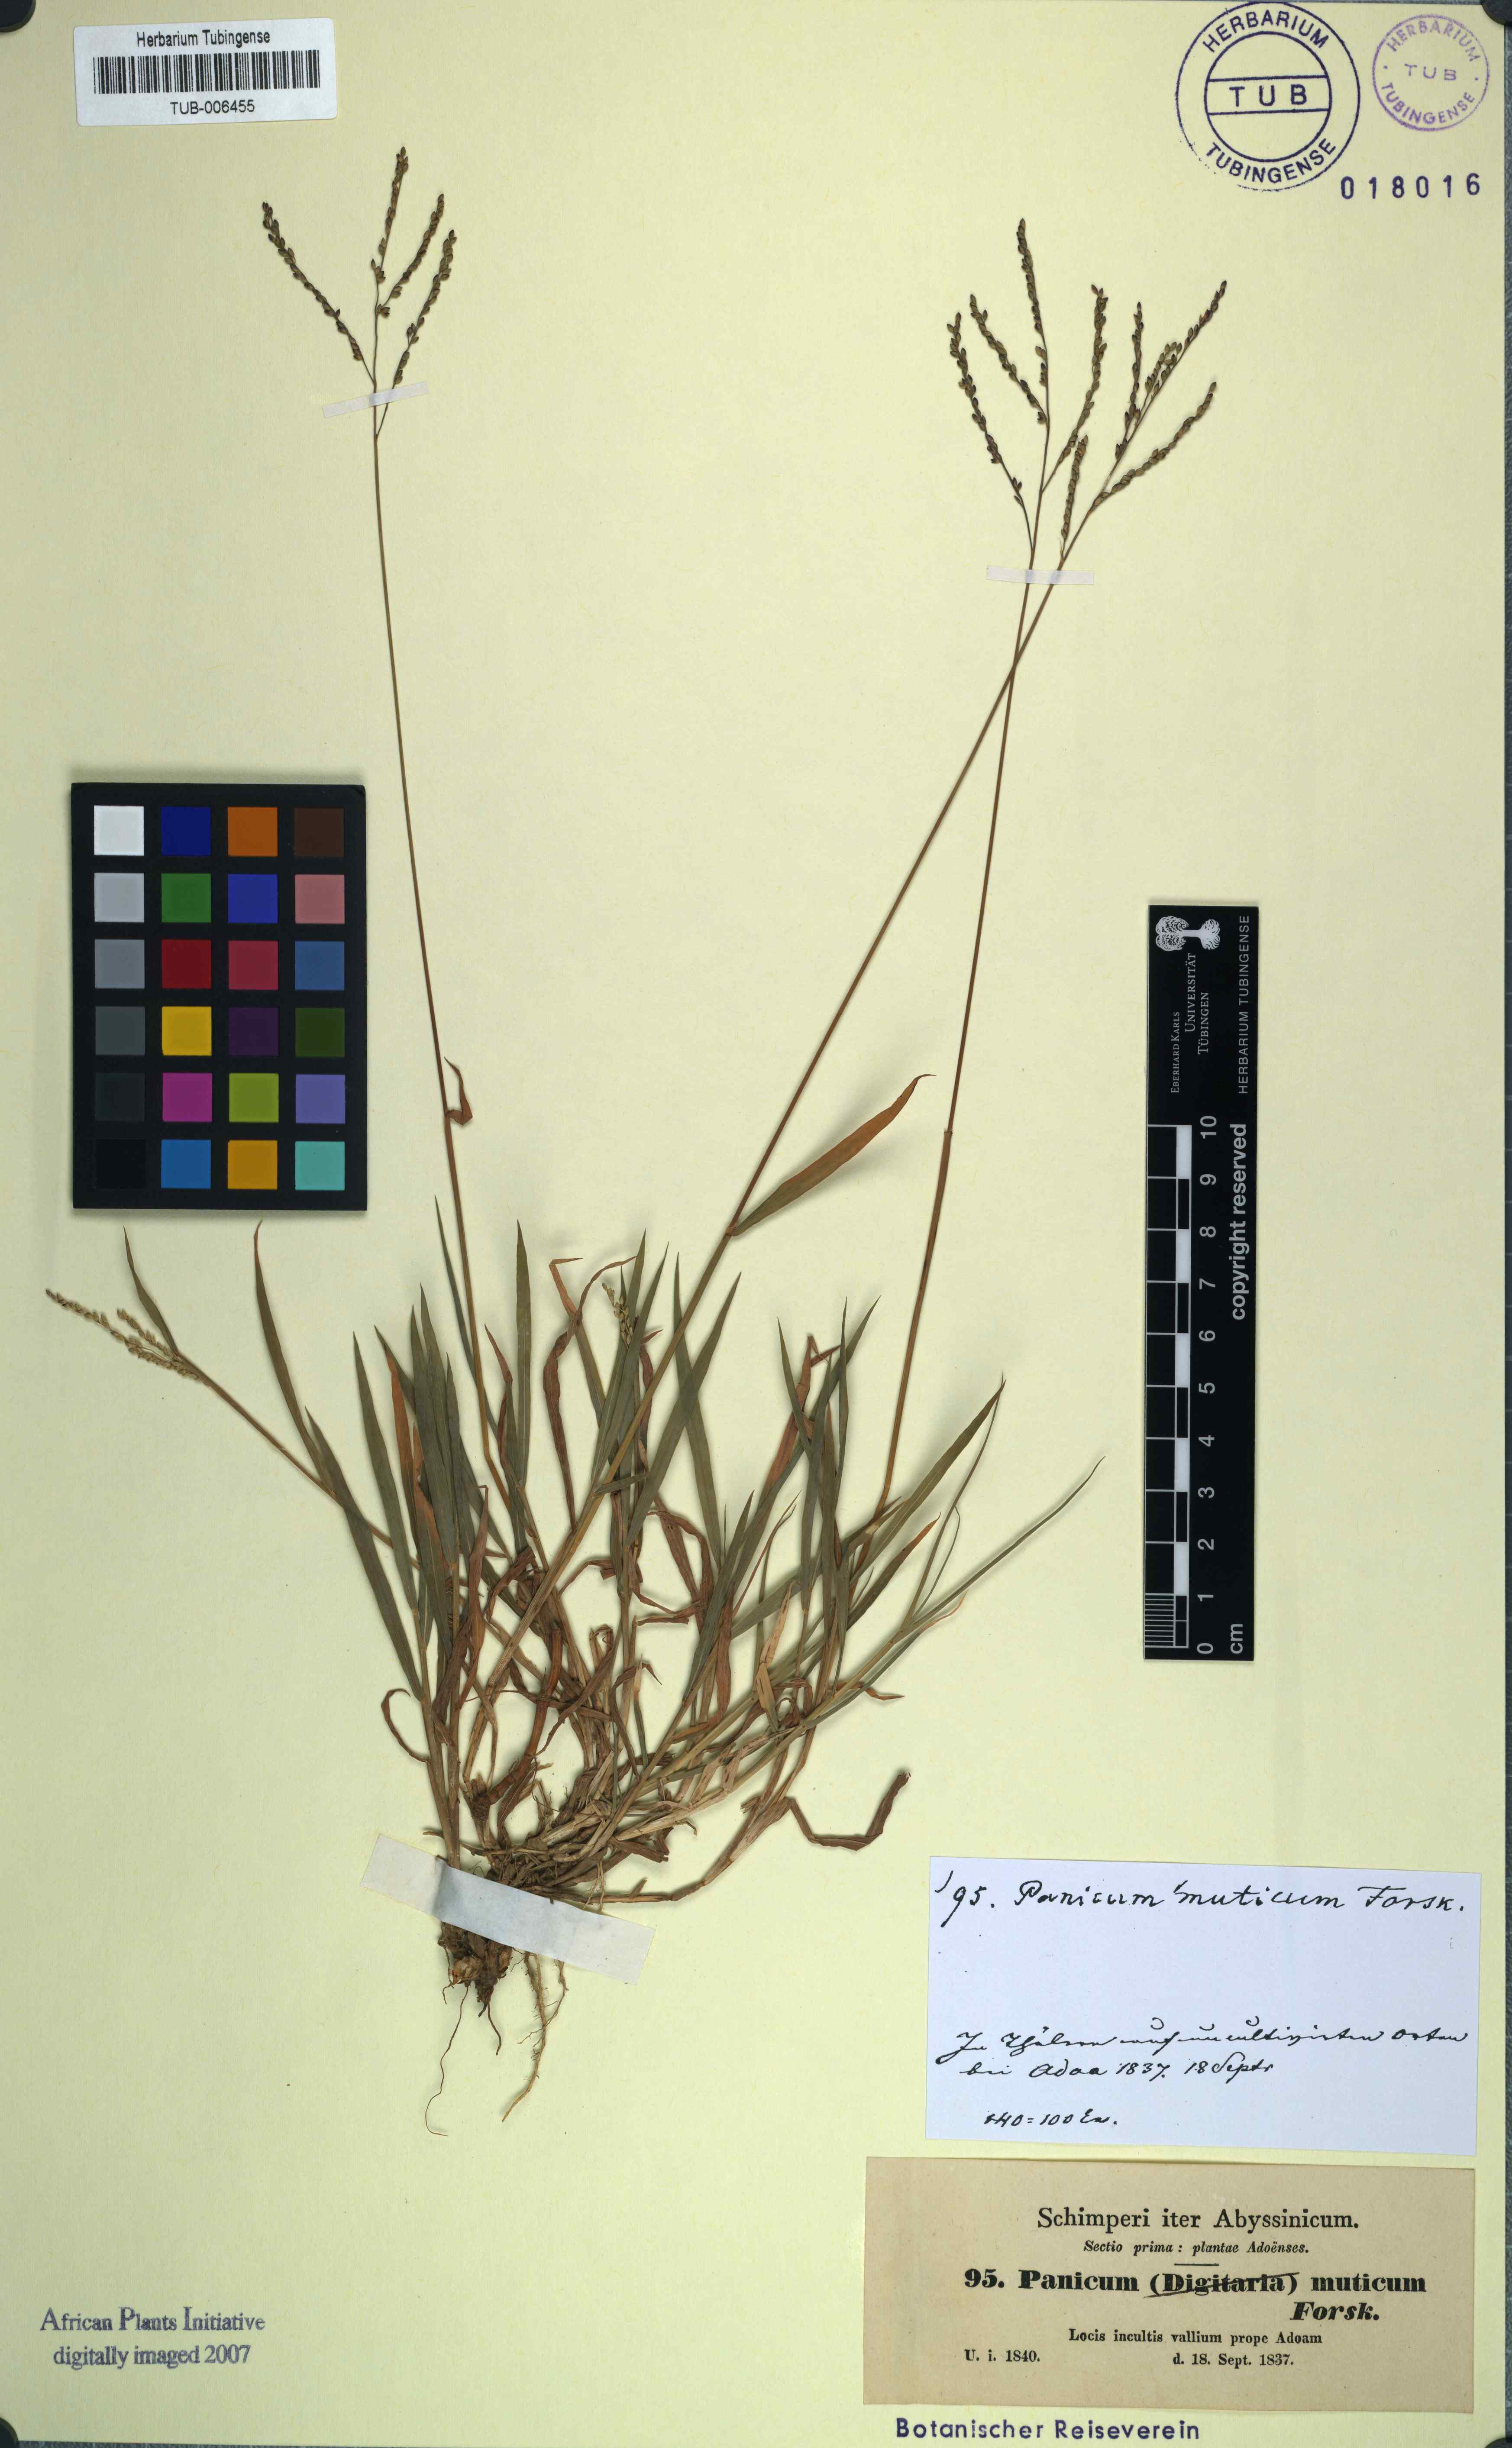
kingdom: Plantae
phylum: Tracheophyta
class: Liliopsida
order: Poales
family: Poaceae
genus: Urochloa
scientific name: Urochloa mutica
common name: Para grass
